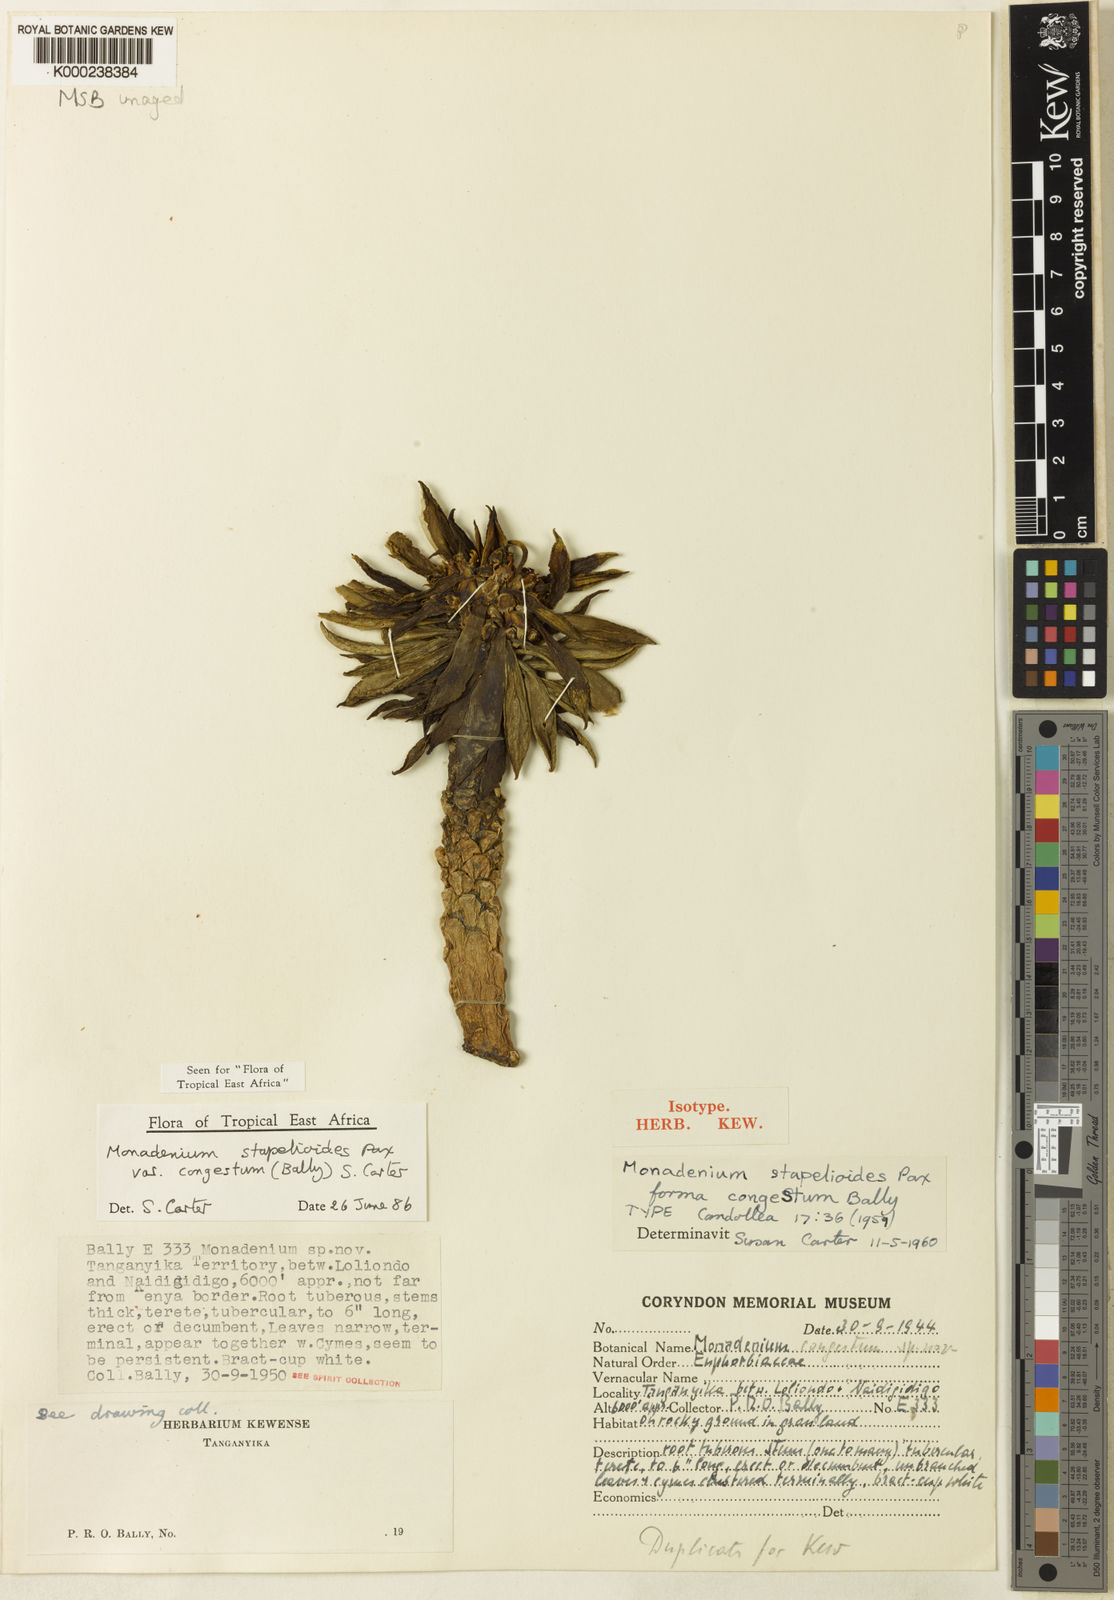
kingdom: Plantae
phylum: Tracheophyta
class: Magnoliopsida
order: Malpighiales
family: Euphorbiaceae
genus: Euphorbia
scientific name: Euphorbia succulenta
